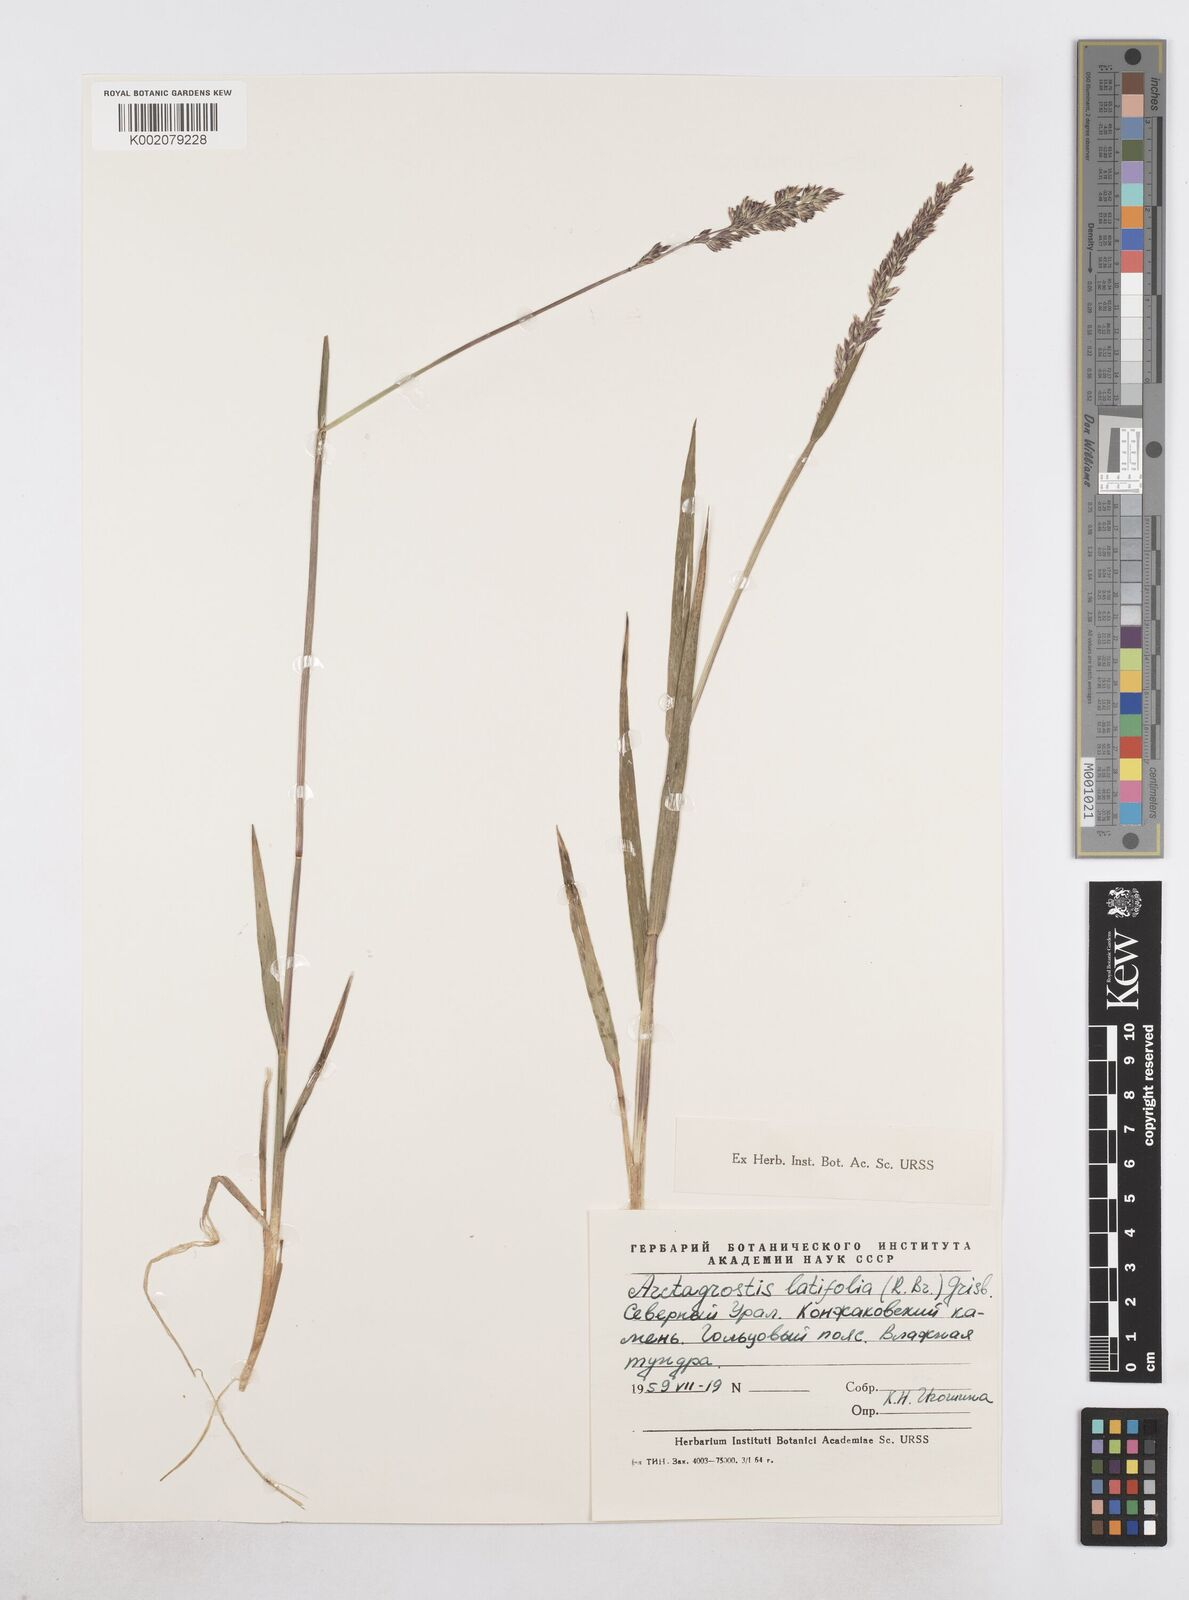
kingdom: Plantae
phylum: Tracheophyta
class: Liliopsida
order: Poales
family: Poaceae
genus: Arctagrostis
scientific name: Arctagrostis latifolia
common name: Arctic grass
